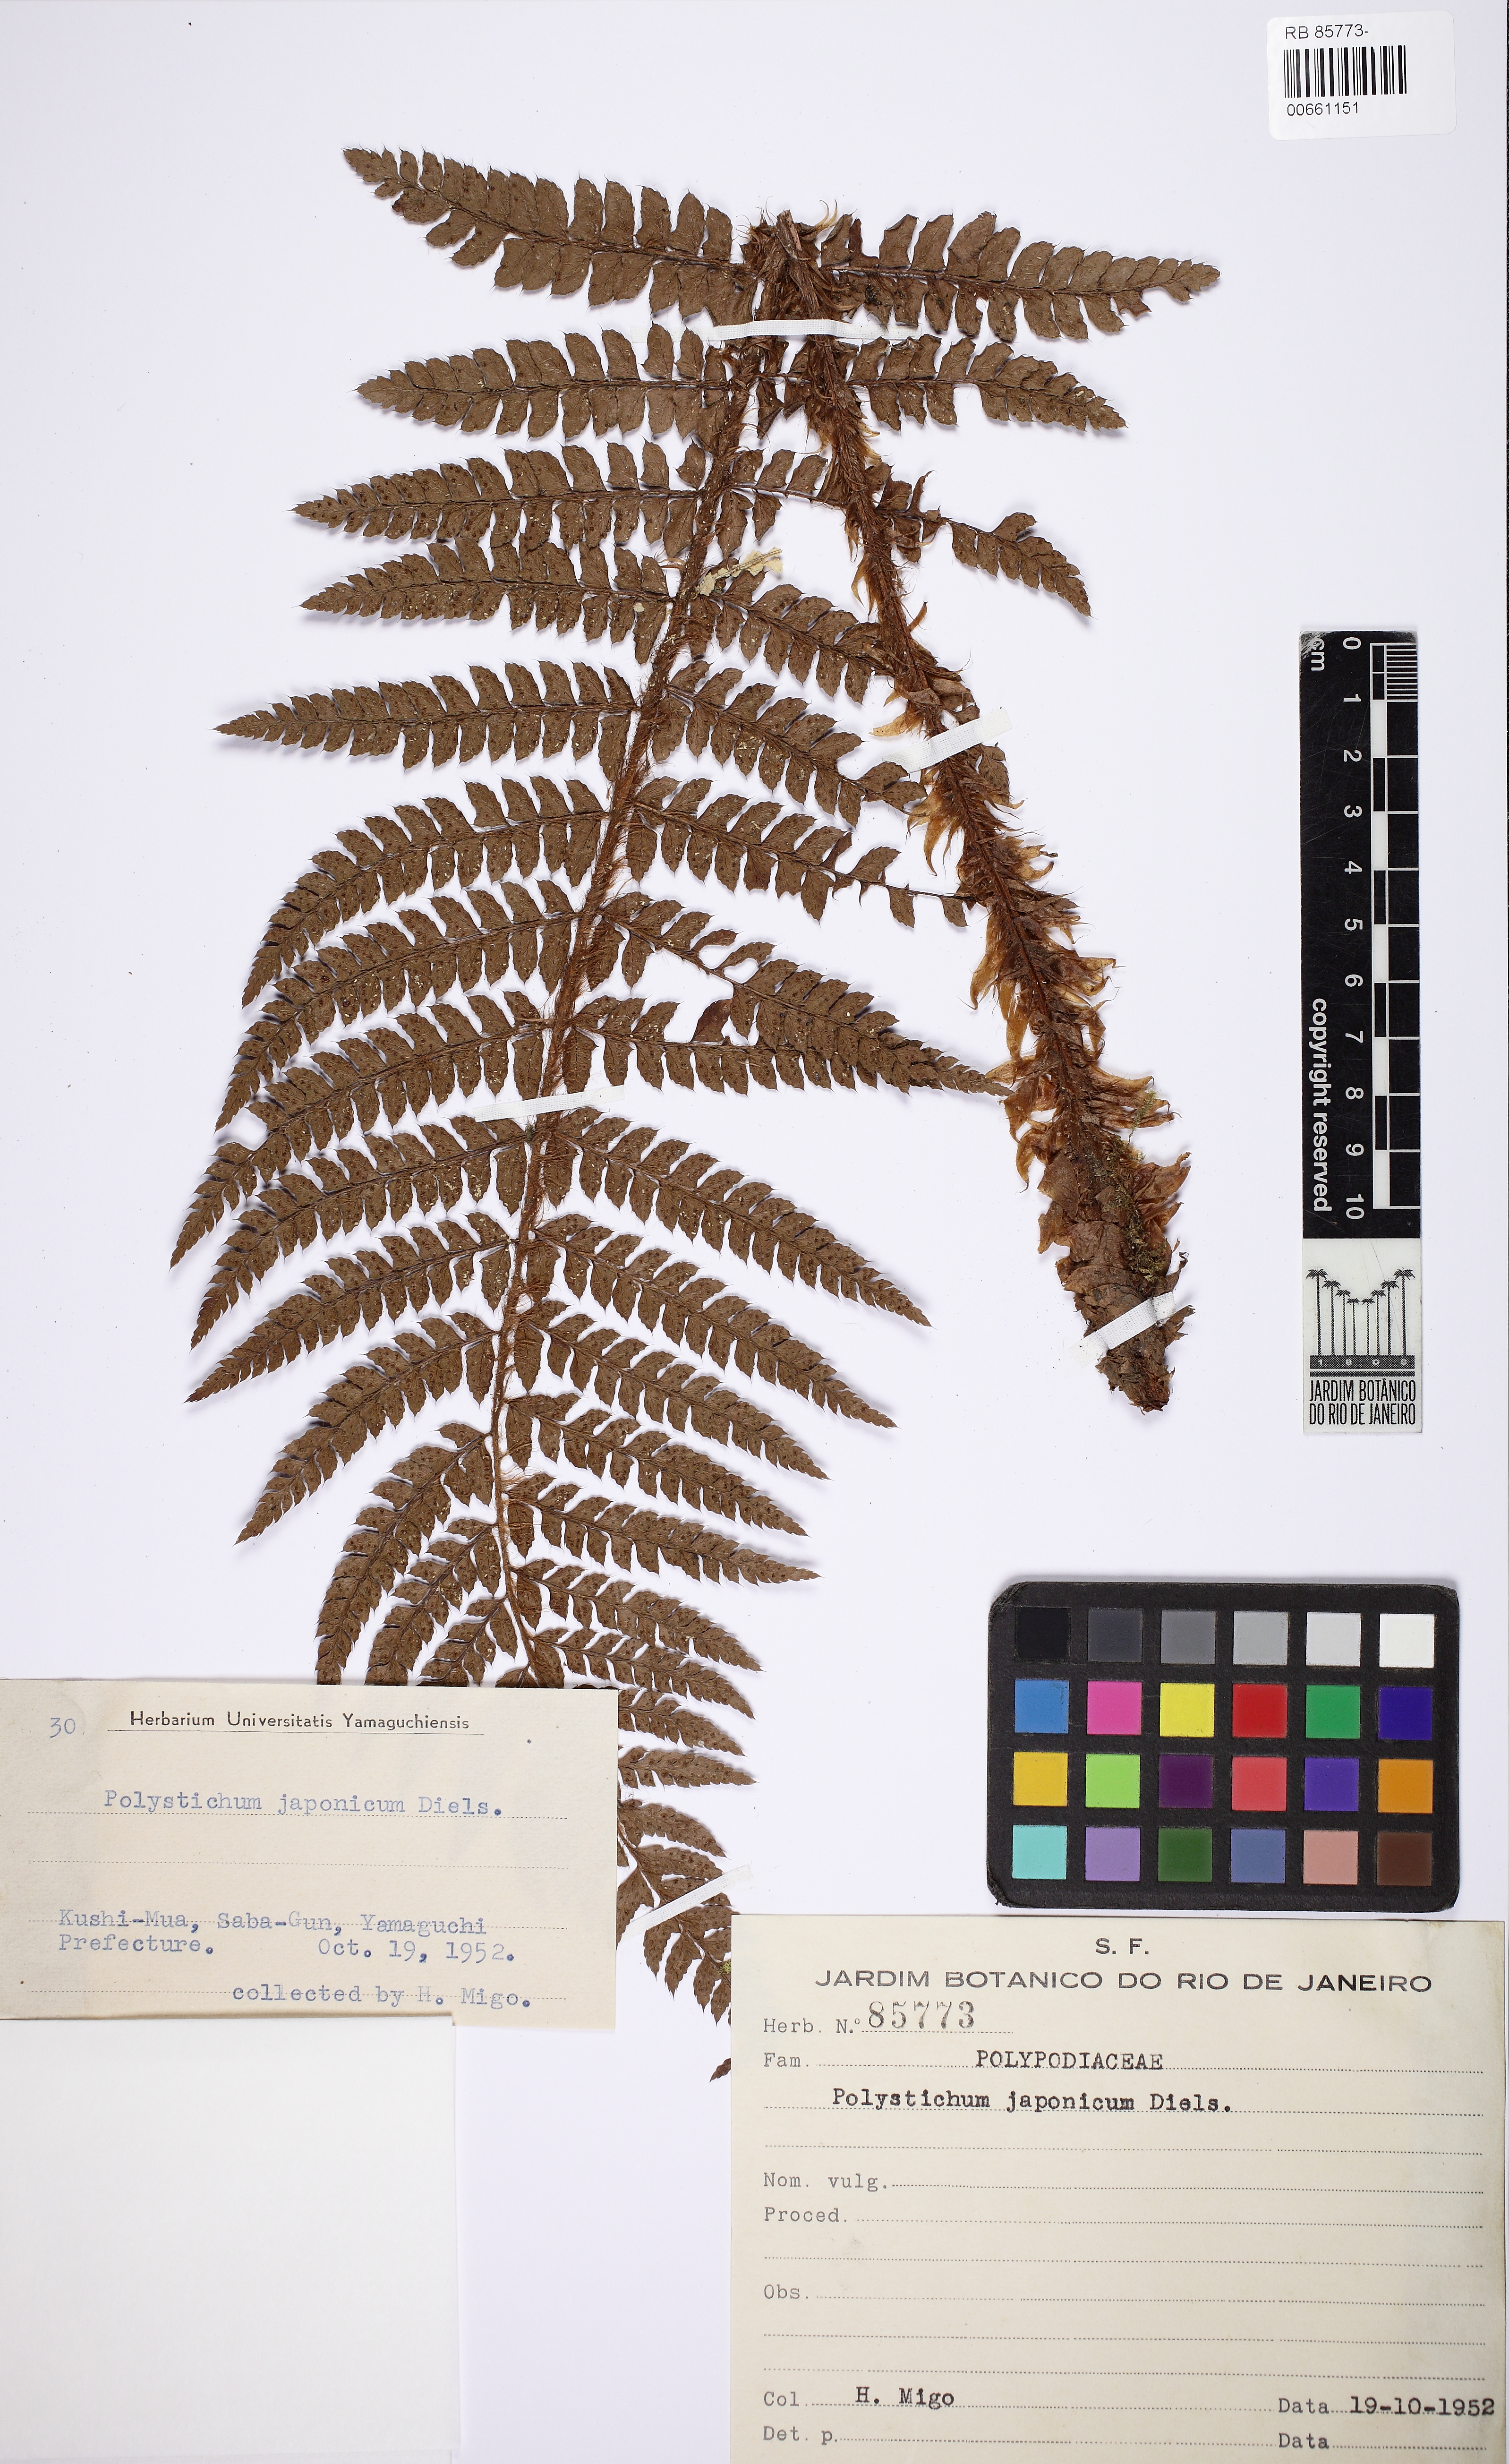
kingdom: Plantae
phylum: Tracheophyta
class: Polypodiopsida
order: Polypodiales
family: Dryopteridaceae
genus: Polystichum
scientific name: Polystichum polyblepharon
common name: Korean tasselfern
